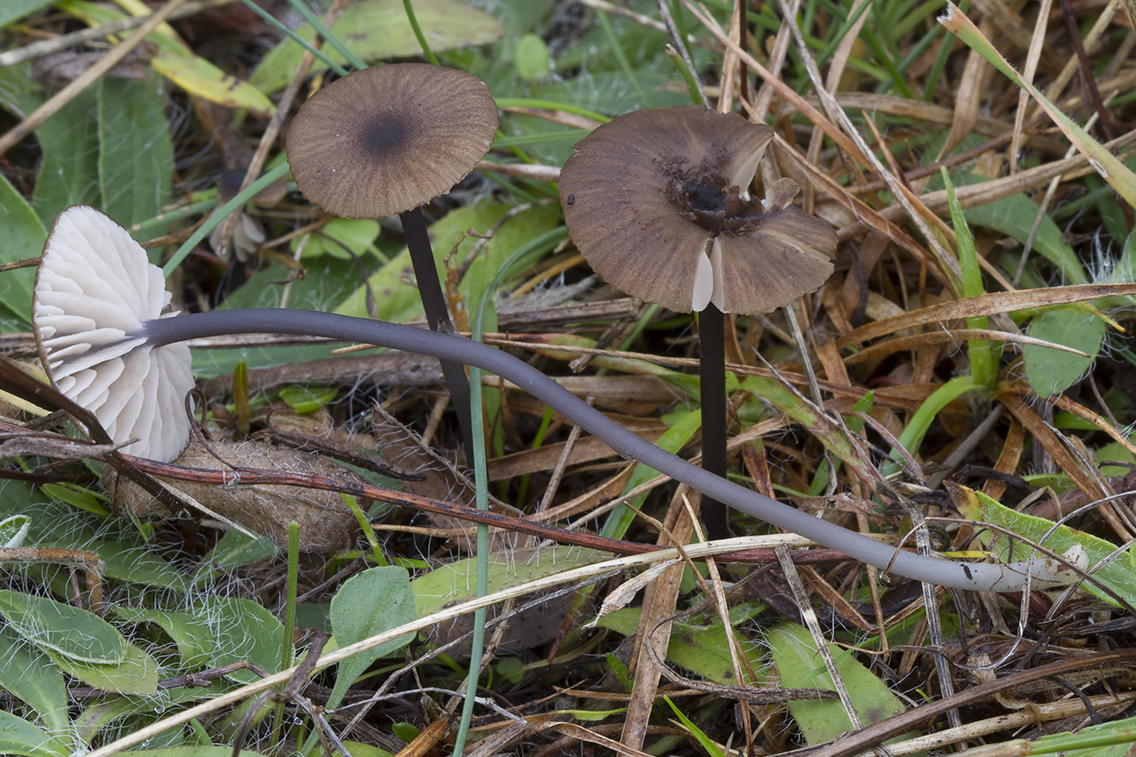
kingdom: Fungi
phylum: Basidiomycota
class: Agaricomycetes
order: Agaricales
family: Entolomataceae
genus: Entoloma
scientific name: Entoloma asprellum
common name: ru rødblad
